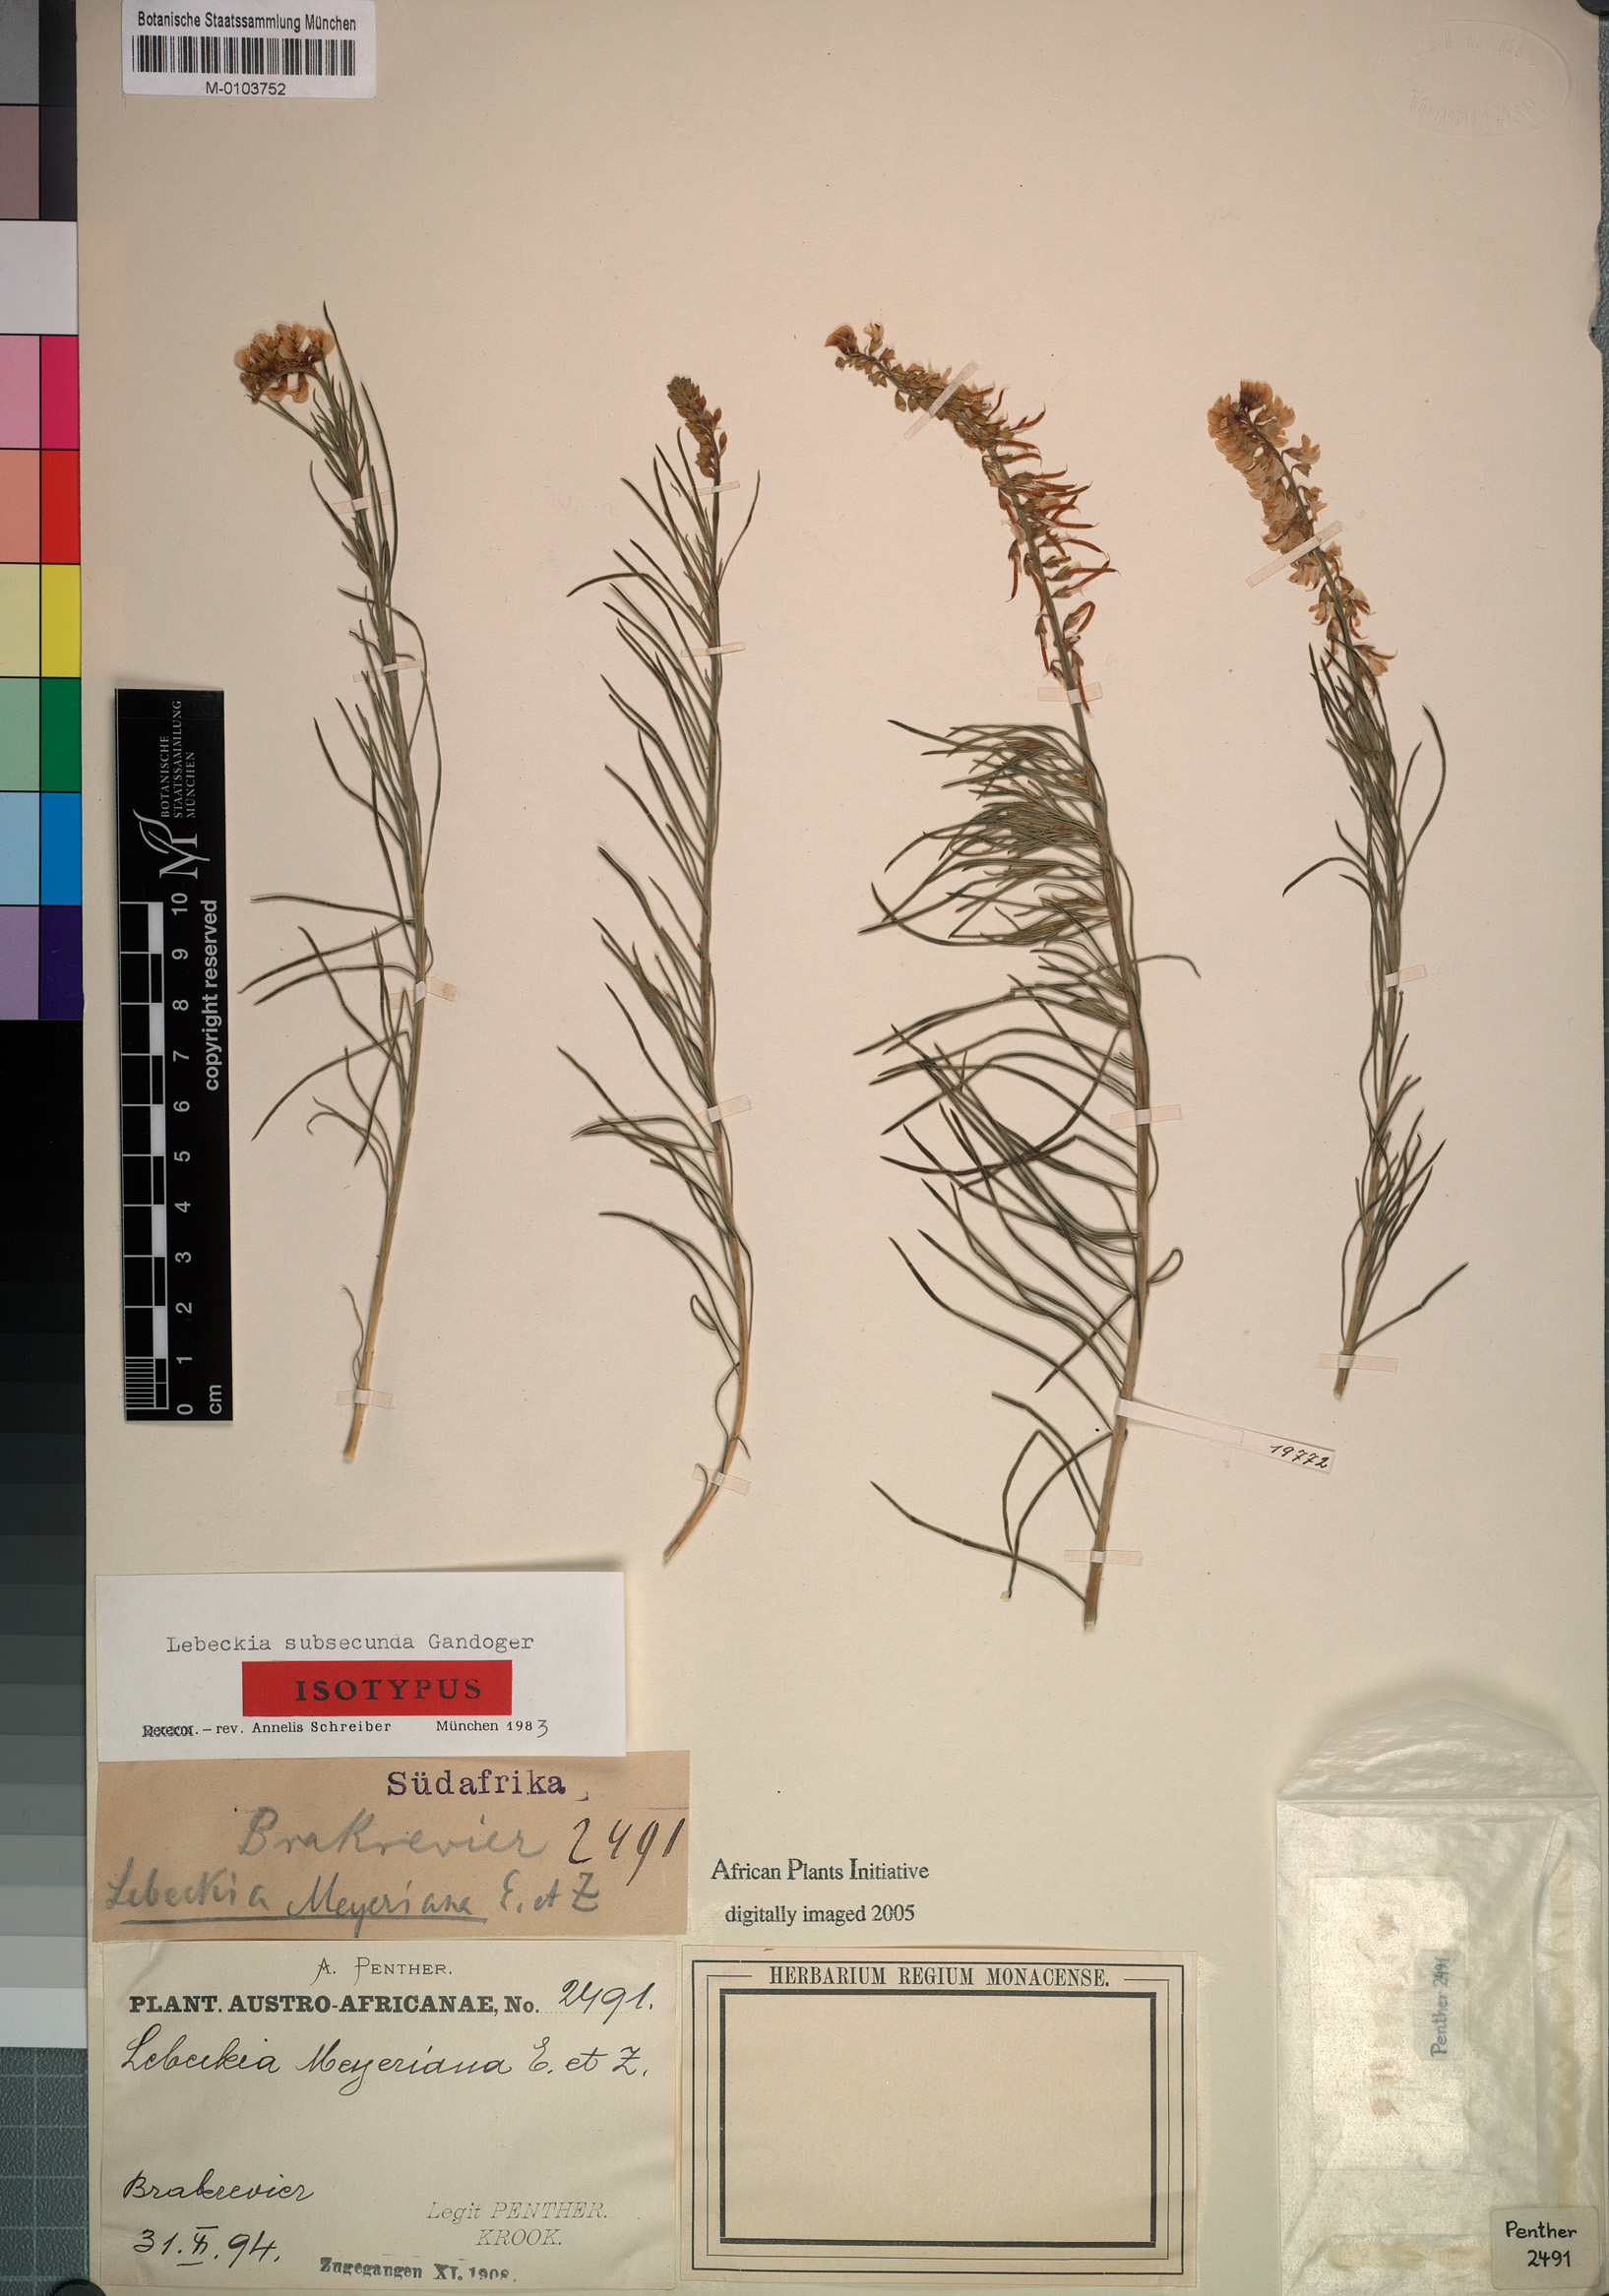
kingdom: Plantae
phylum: Tracheophyta
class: Magnoliopsida
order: Fabales
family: Fabaceae
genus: Lebeckia
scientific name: Lebeckia gracilis
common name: Slender ganna
